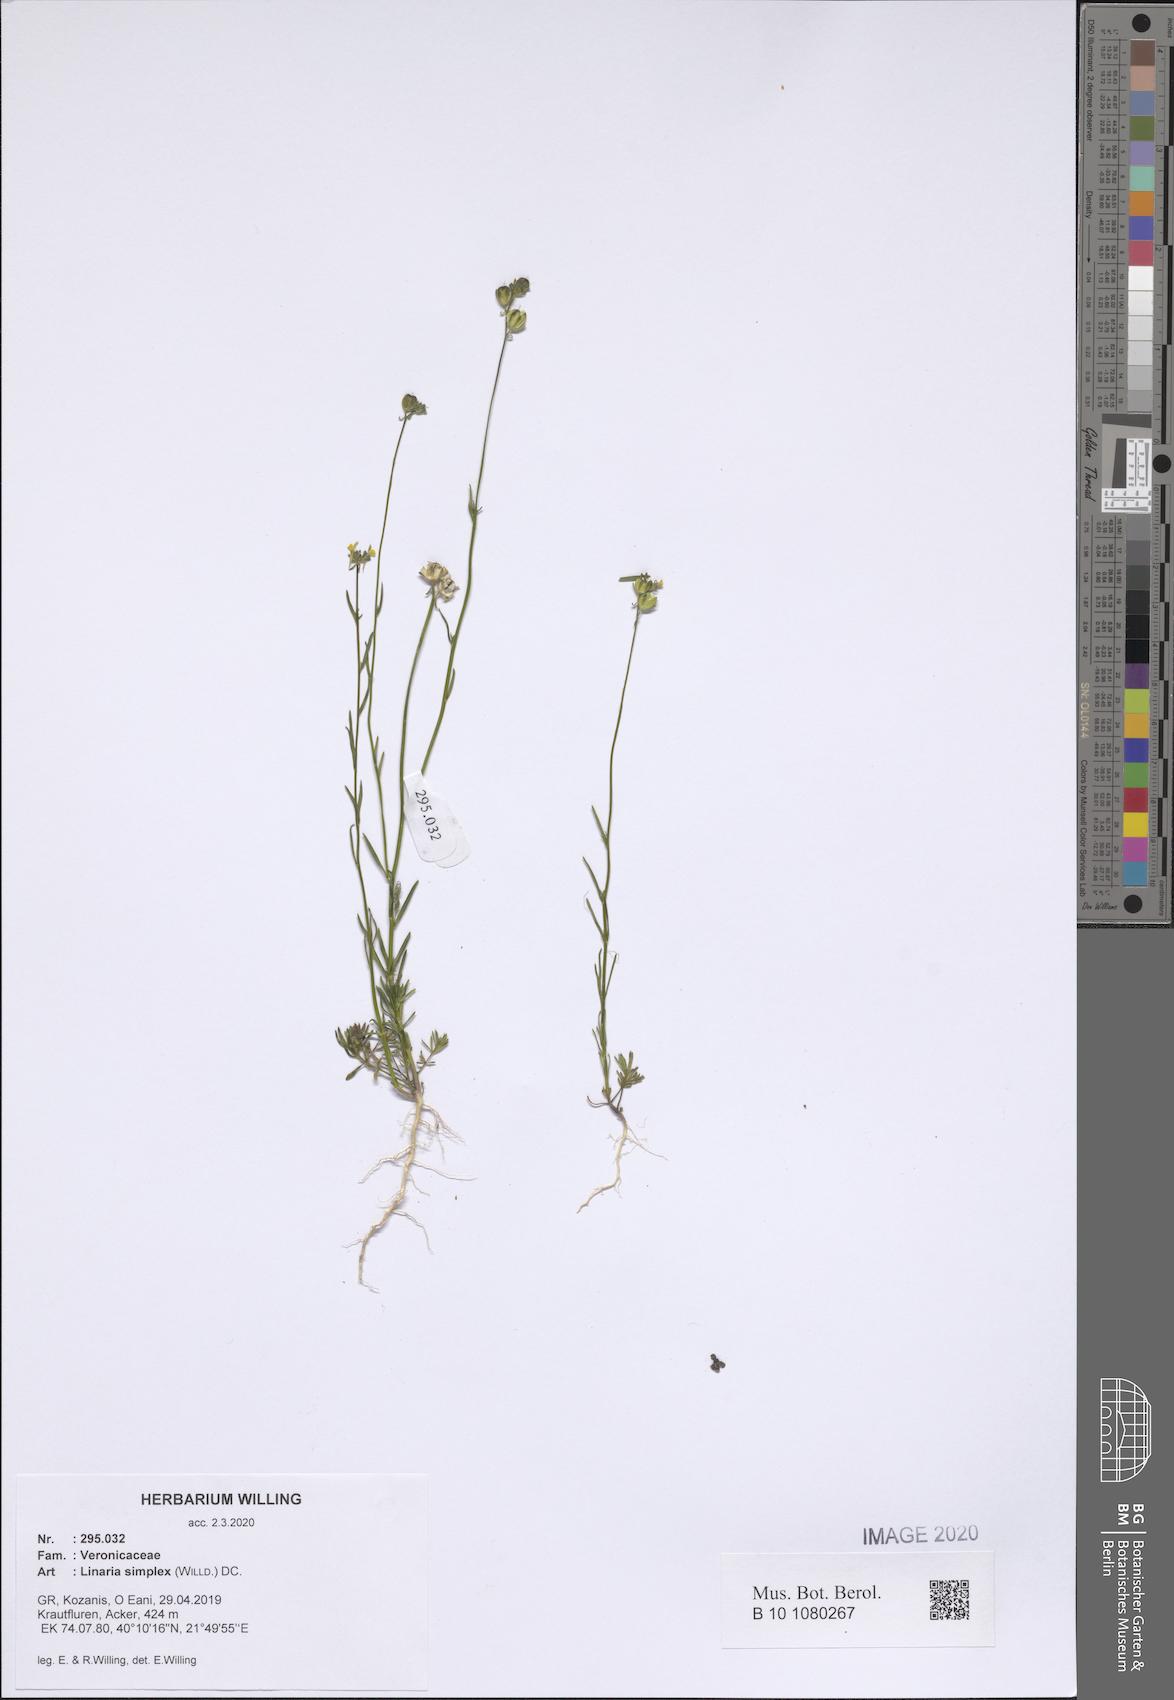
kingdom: Plantae
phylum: Tracheophyta
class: Magnoliopsida
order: Lamiales
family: Plantaginaceae
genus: Linaria
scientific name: Linaria simplex
